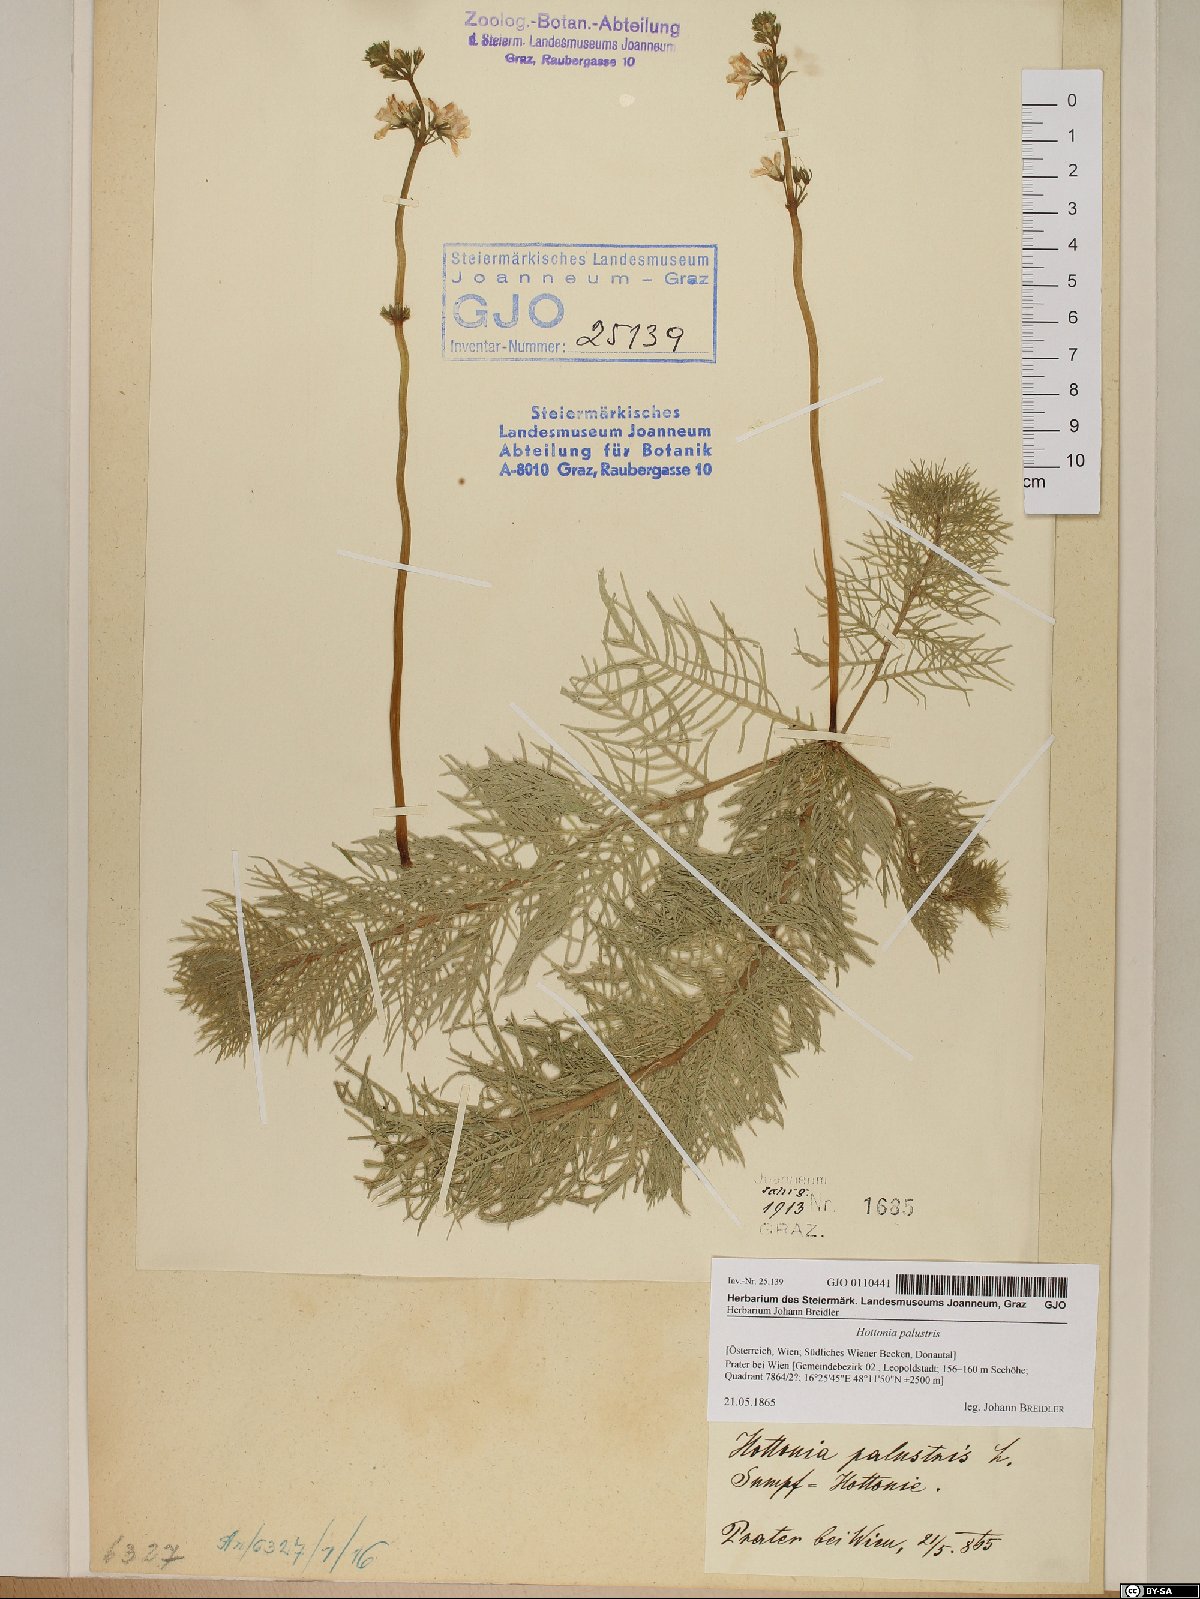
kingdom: Plantae
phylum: Tracheophyta
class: Magnoliopsida
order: Ericales
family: Primulaceae
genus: Hottonia
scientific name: Hottonia palustris
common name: Water-violet
